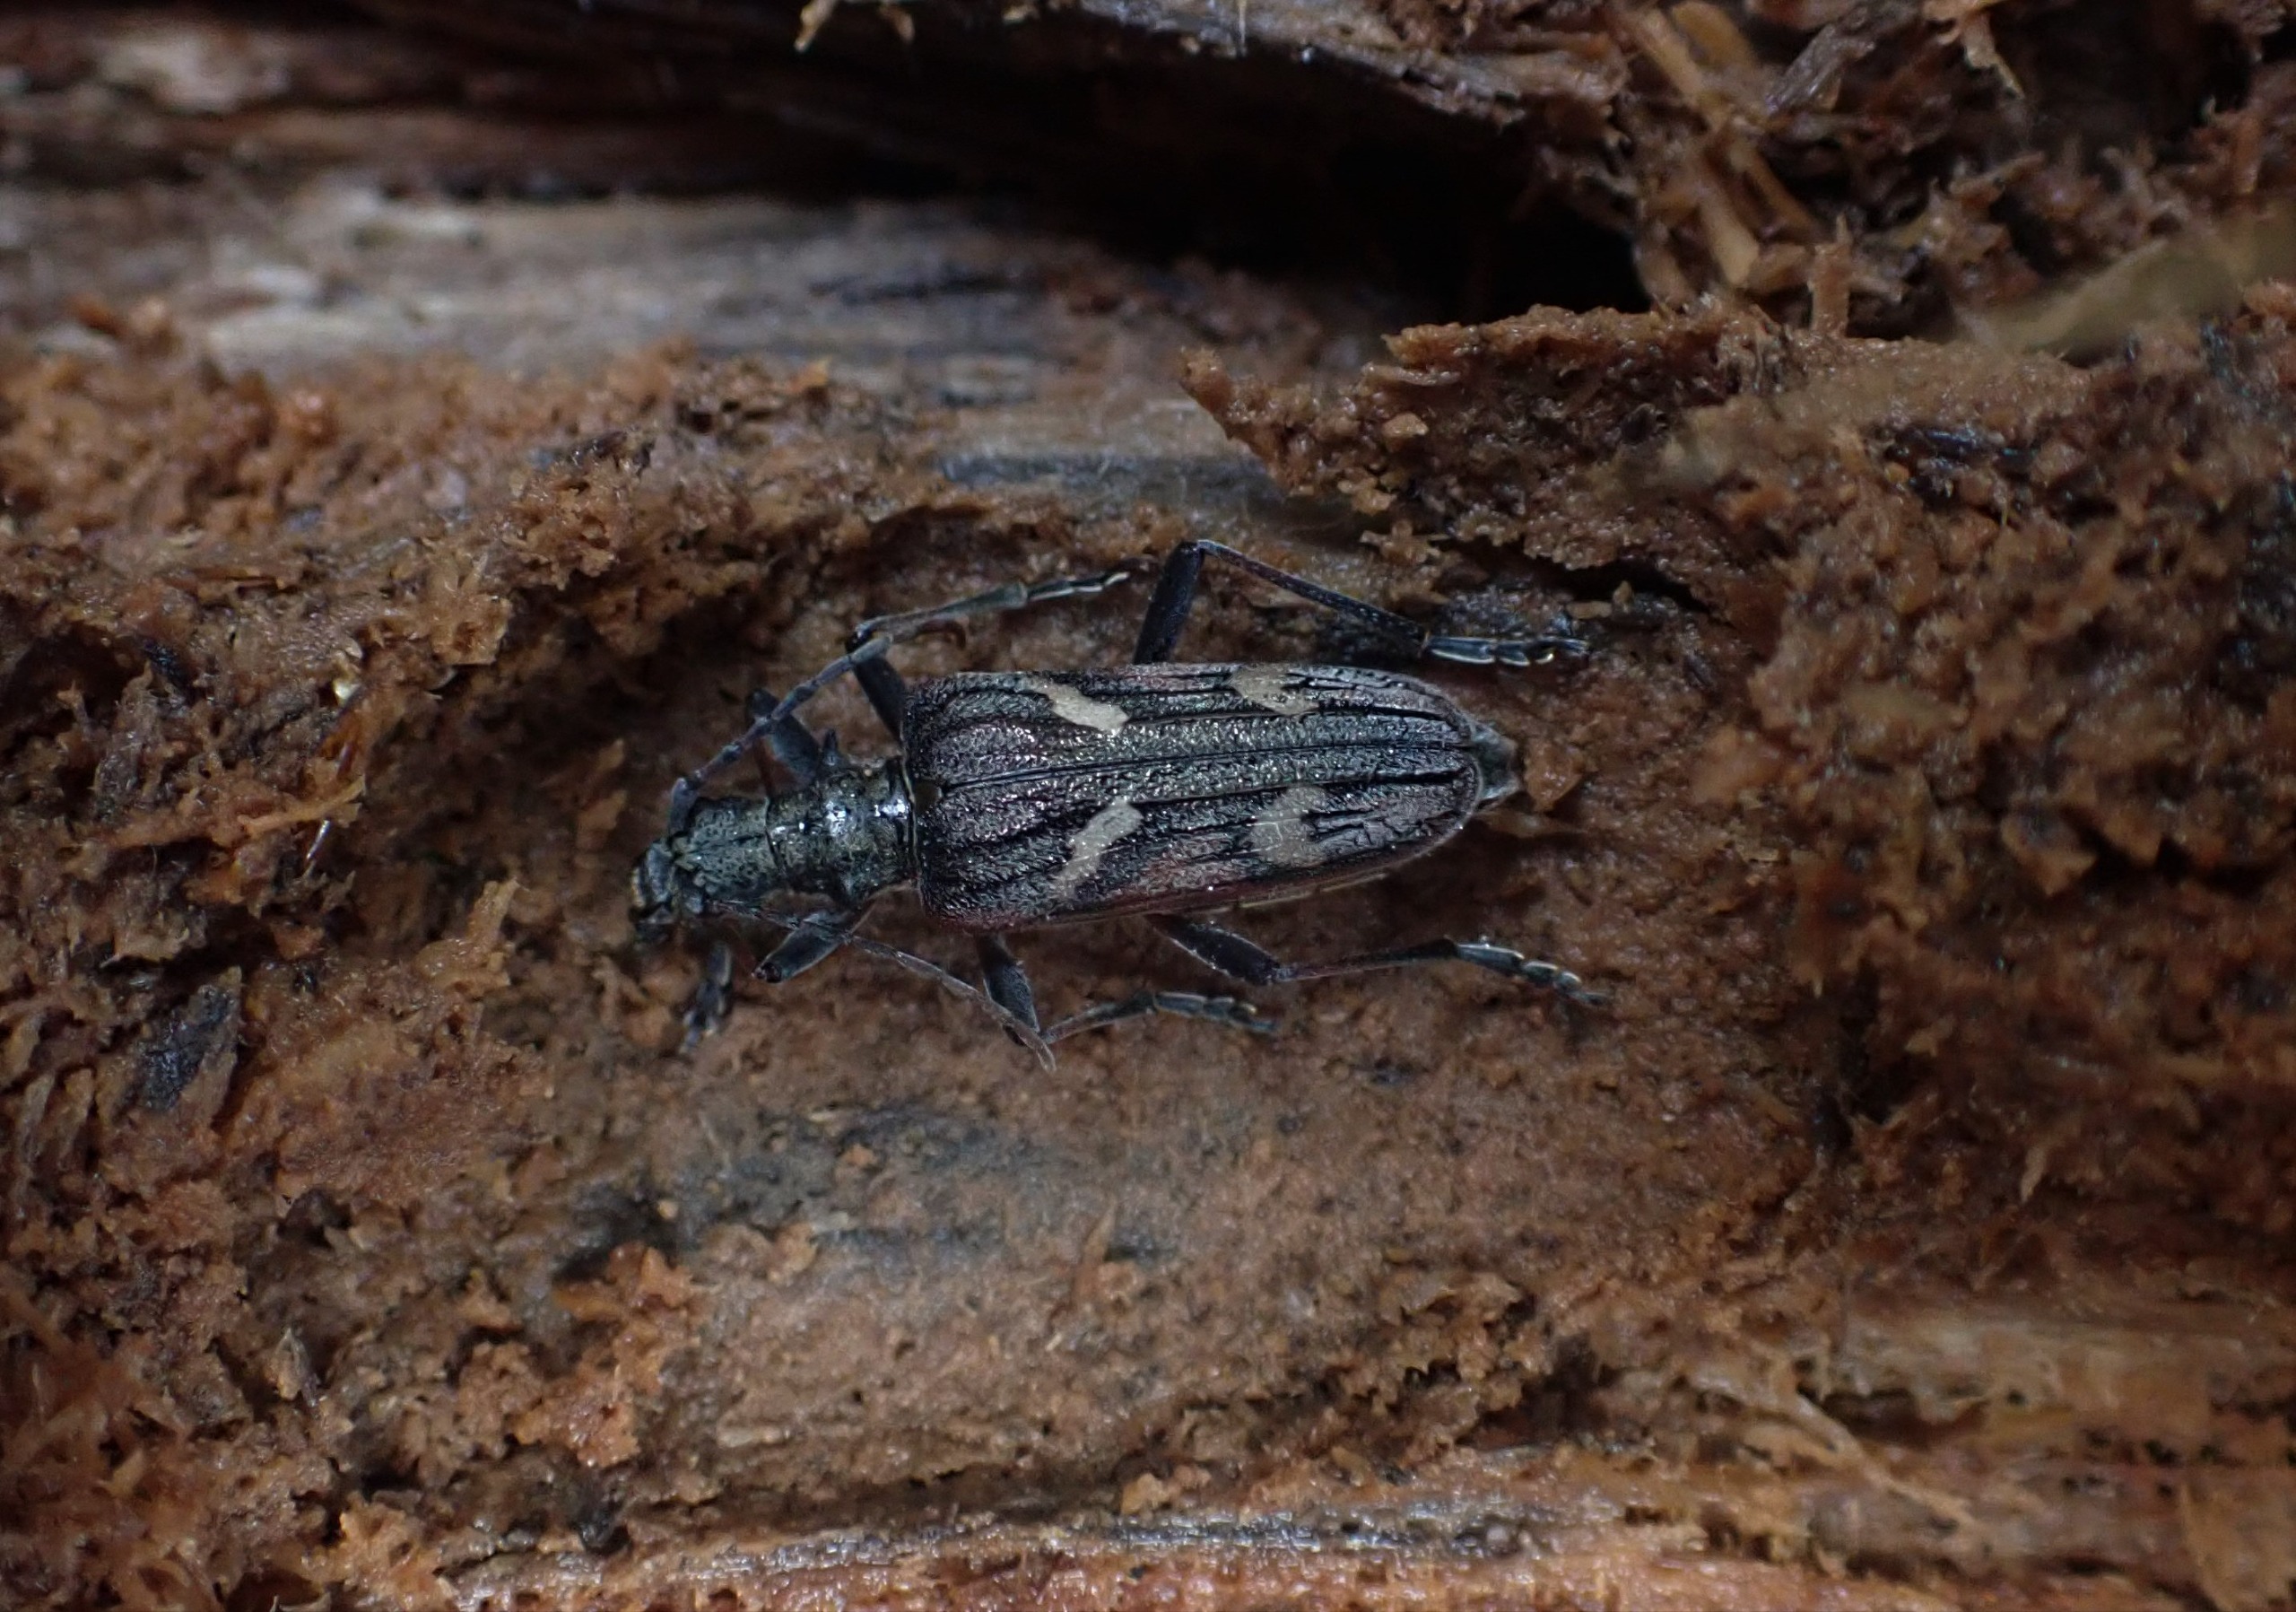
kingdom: Animalia
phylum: Arthropoda
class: Insecta
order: Coleoptera
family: Cerambycidae
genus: Rhagium
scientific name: Rhagium bifasciatum
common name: Båndet tandbuk
